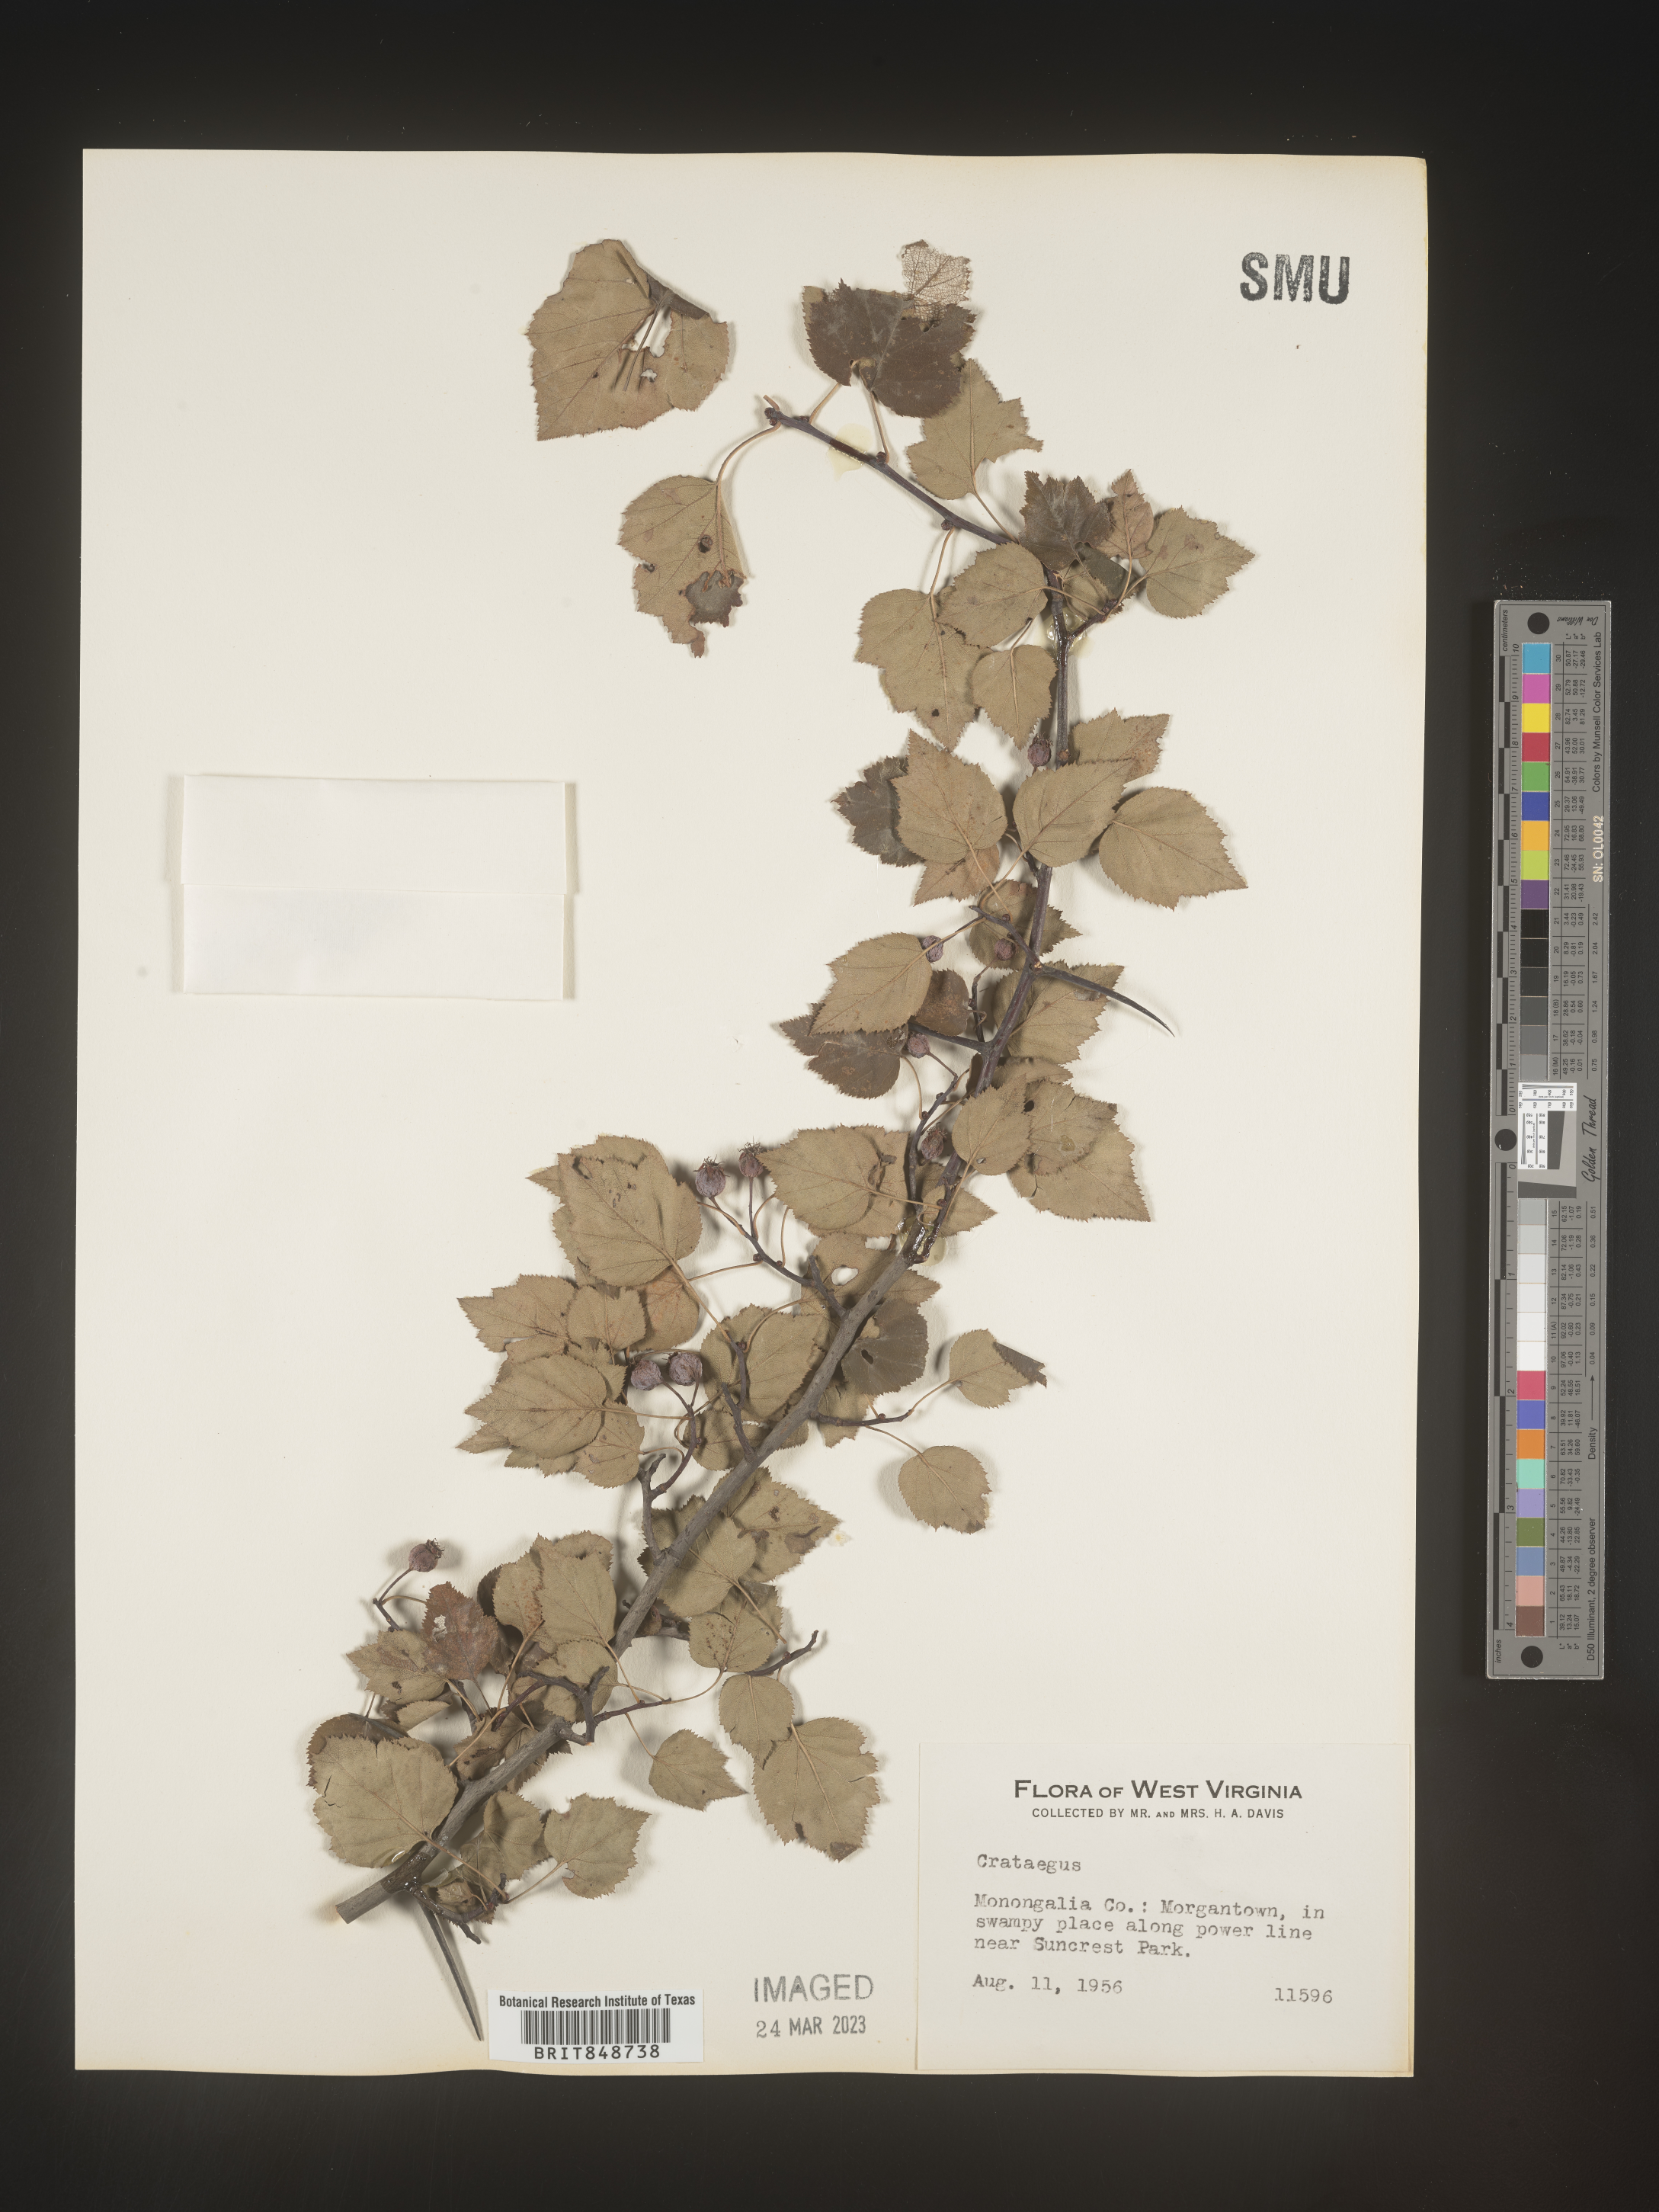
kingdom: Plantae
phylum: Tracheophyta
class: Magnoliopsida
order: Rosales
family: Rosaceae
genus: Crataegus
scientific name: Crataegus
